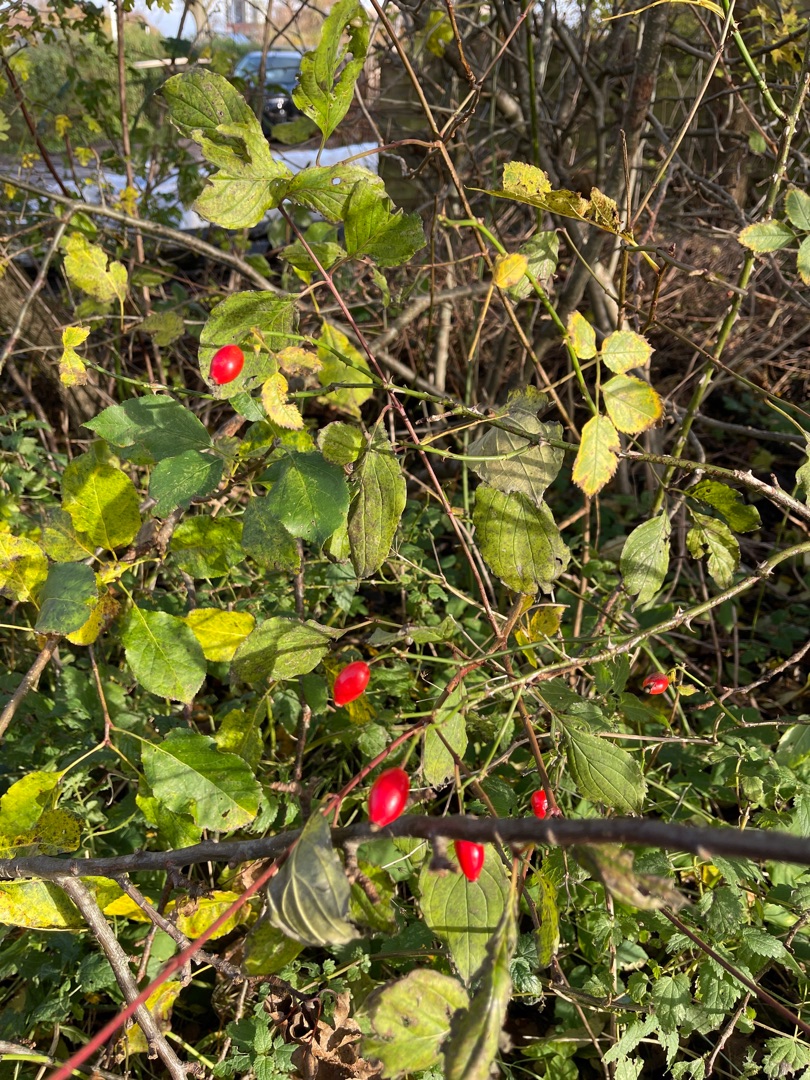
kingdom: Plantae
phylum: Tracheophyta
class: Magnoliopsida
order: Rosales
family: Rosaceae
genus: Rosa
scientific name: Rosa canina
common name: Hunde-rose
